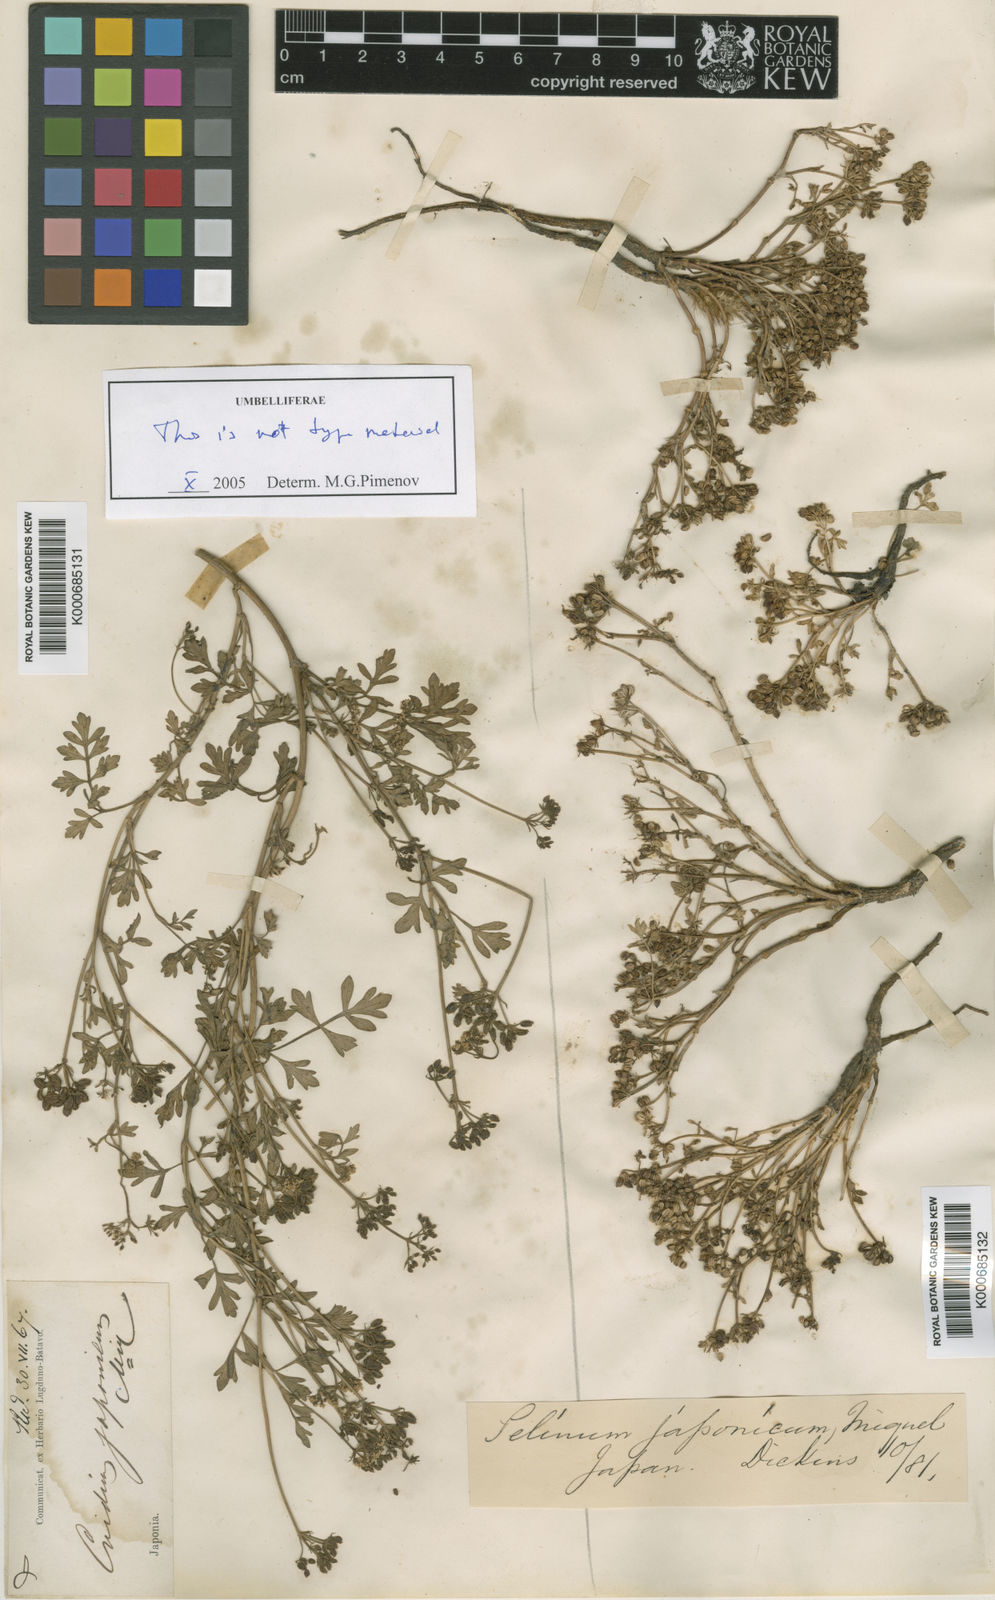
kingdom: Plantae
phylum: Tracheophyta
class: Magnoliopsida
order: Apiales
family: Apiaceae
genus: Cnidium
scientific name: Cnidium japonicum
